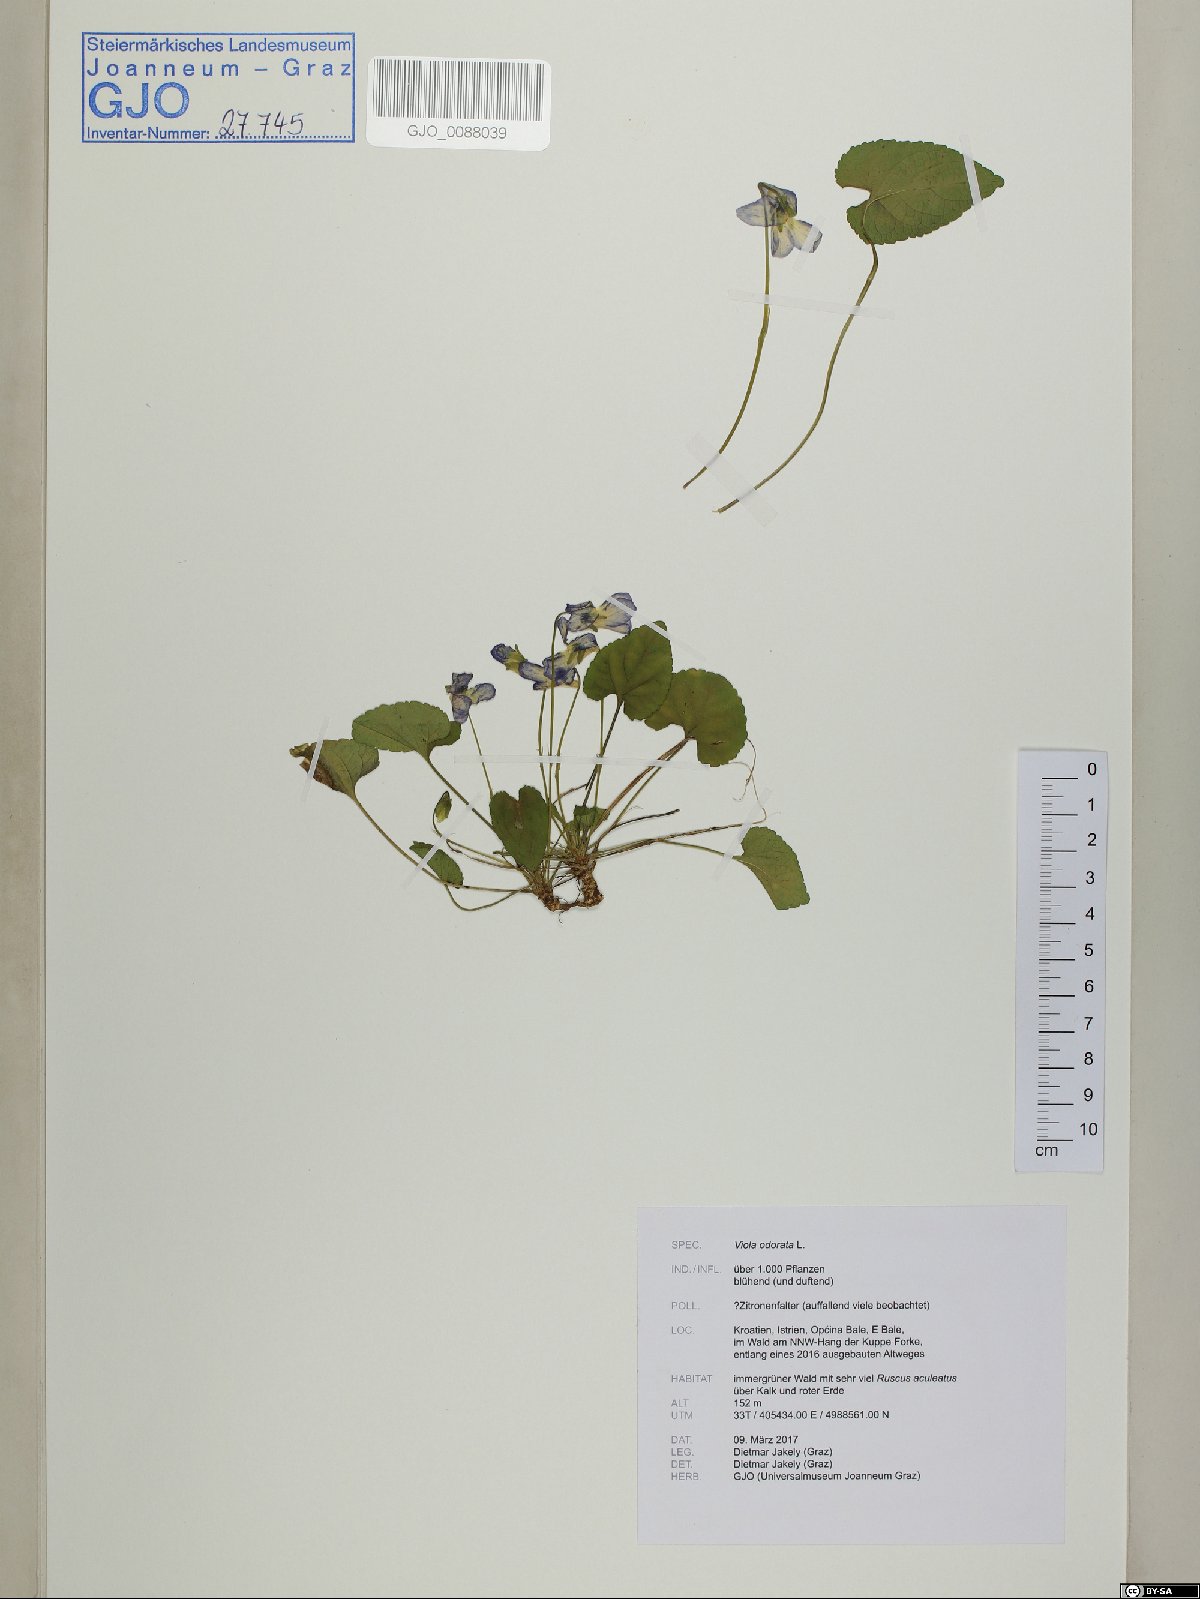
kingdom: Plantae
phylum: Tracheophyta
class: Magnoliopsida
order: Malpighiales
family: Violaceae
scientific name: Violaceae
